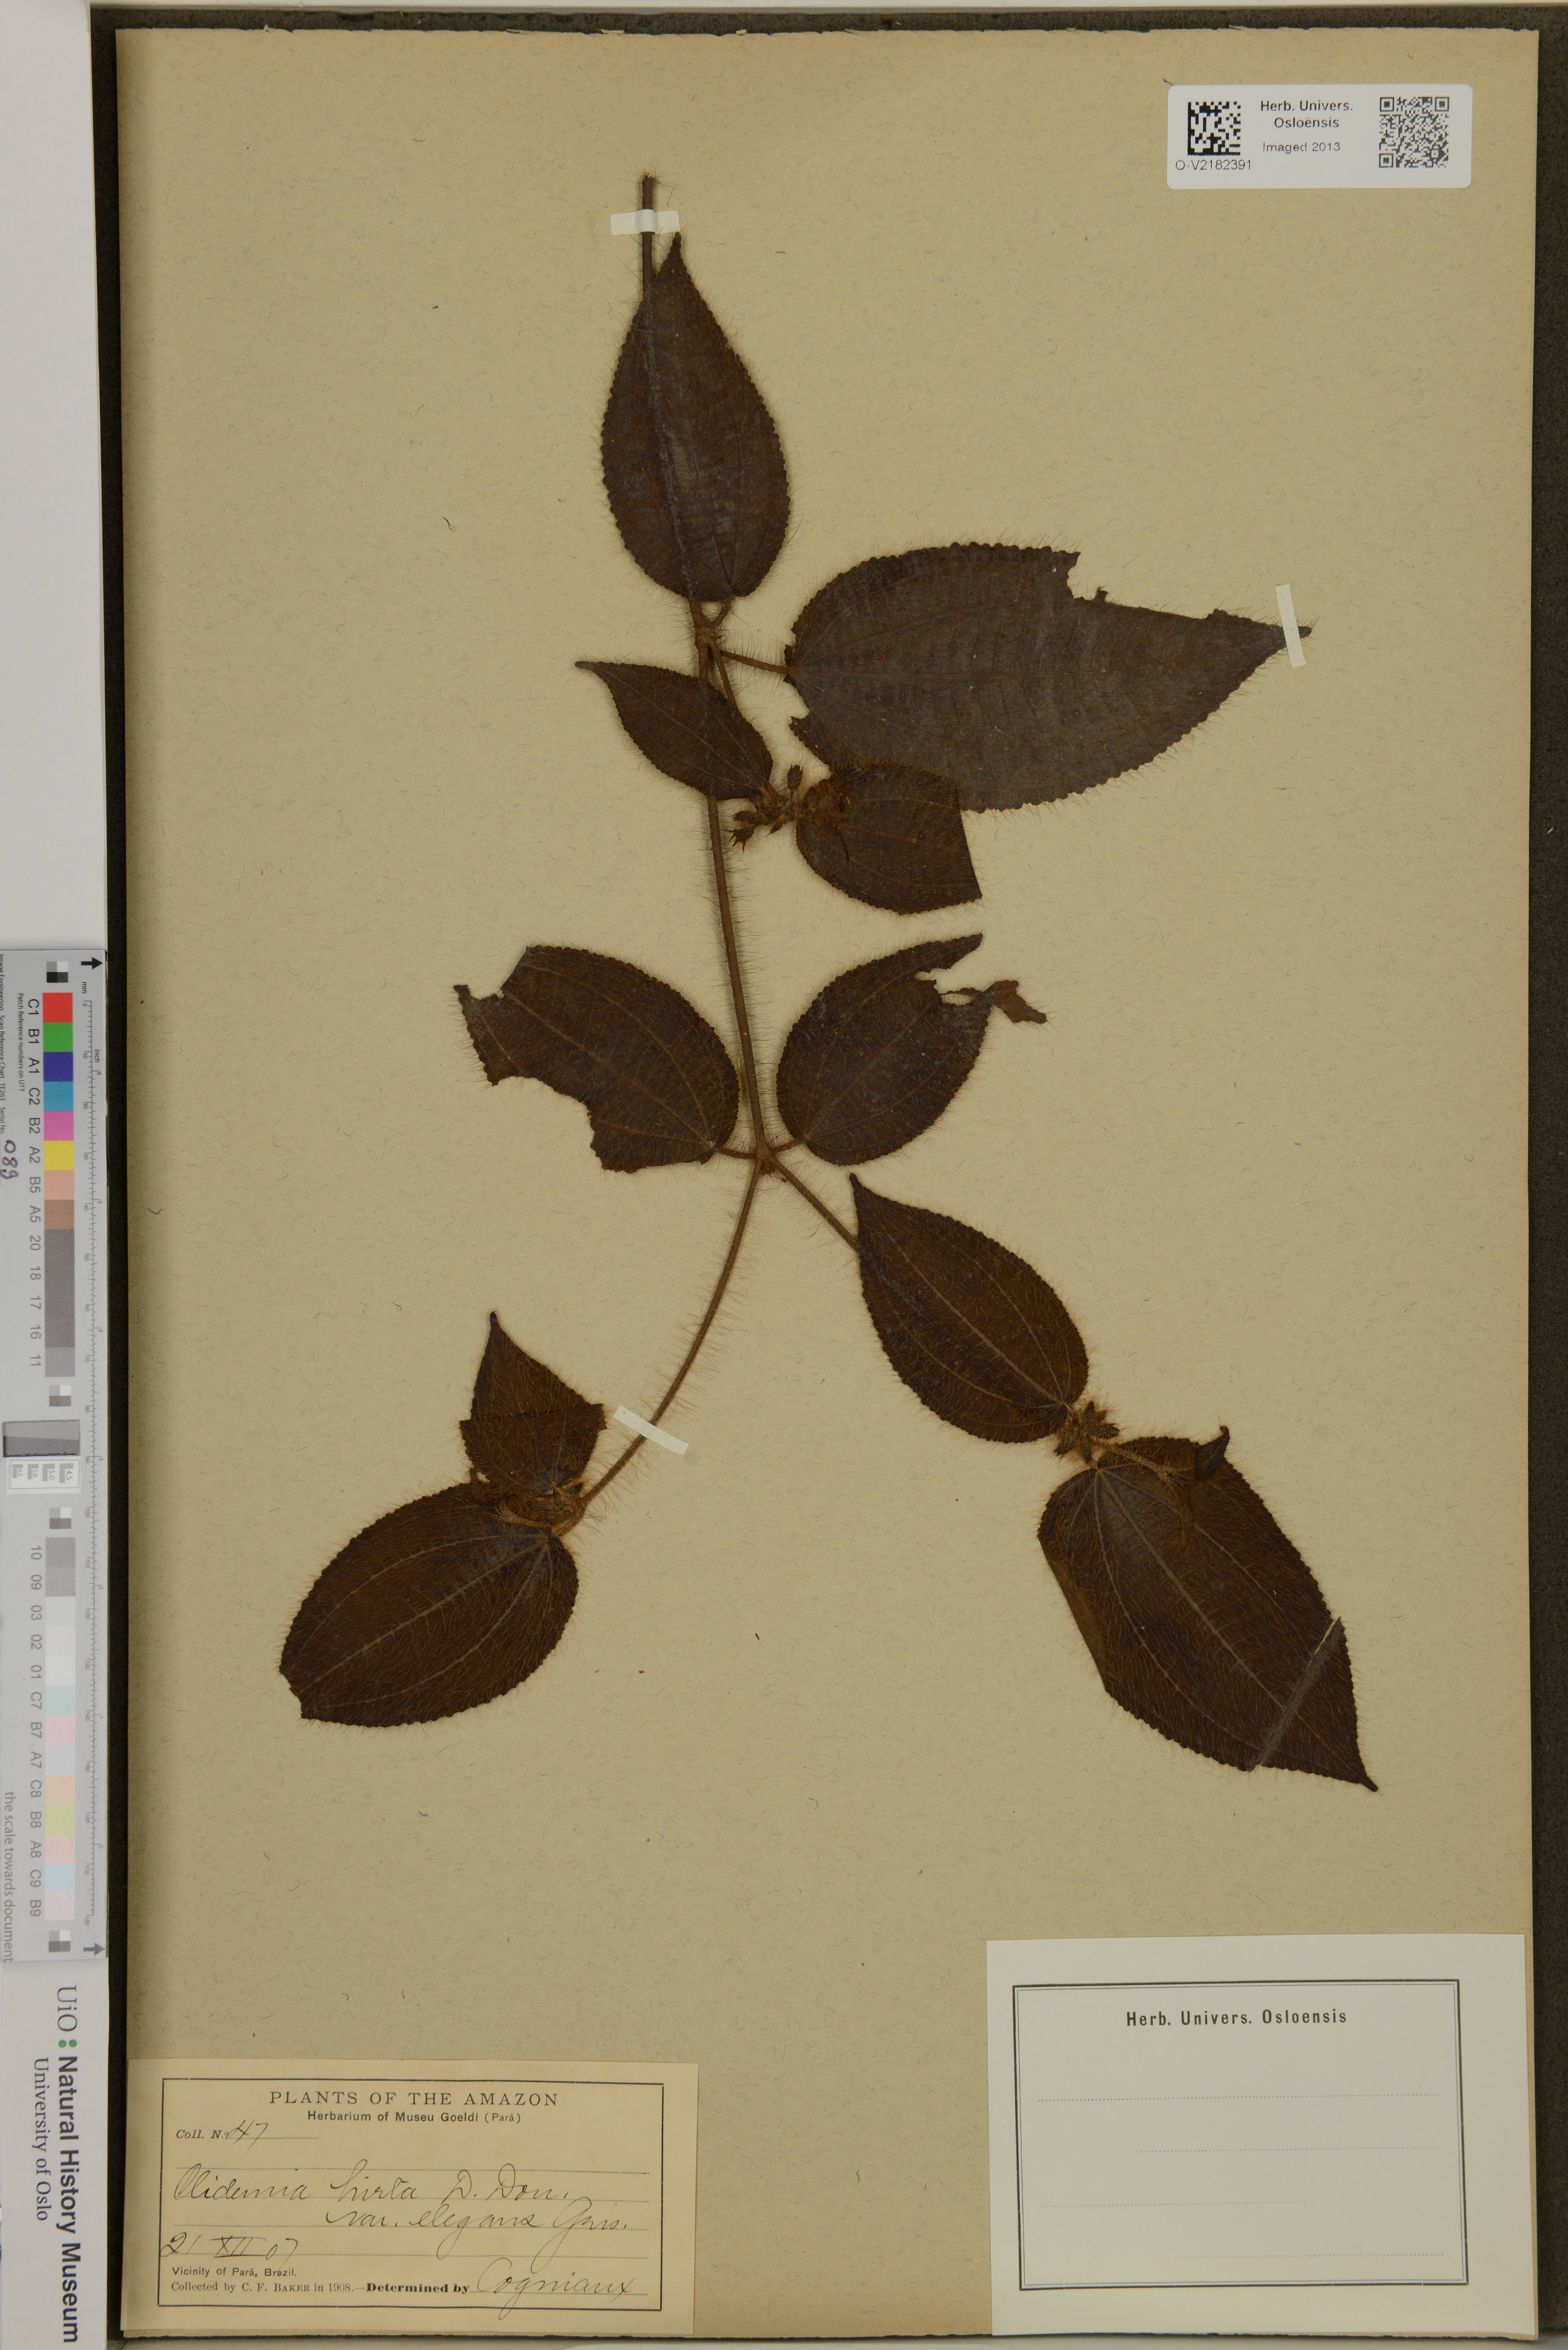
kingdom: Plantae
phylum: Tracheophyta
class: Magnoliopsida
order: Myrtales
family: Melastomataceae
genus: Miconia
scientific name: Miconia crenata
